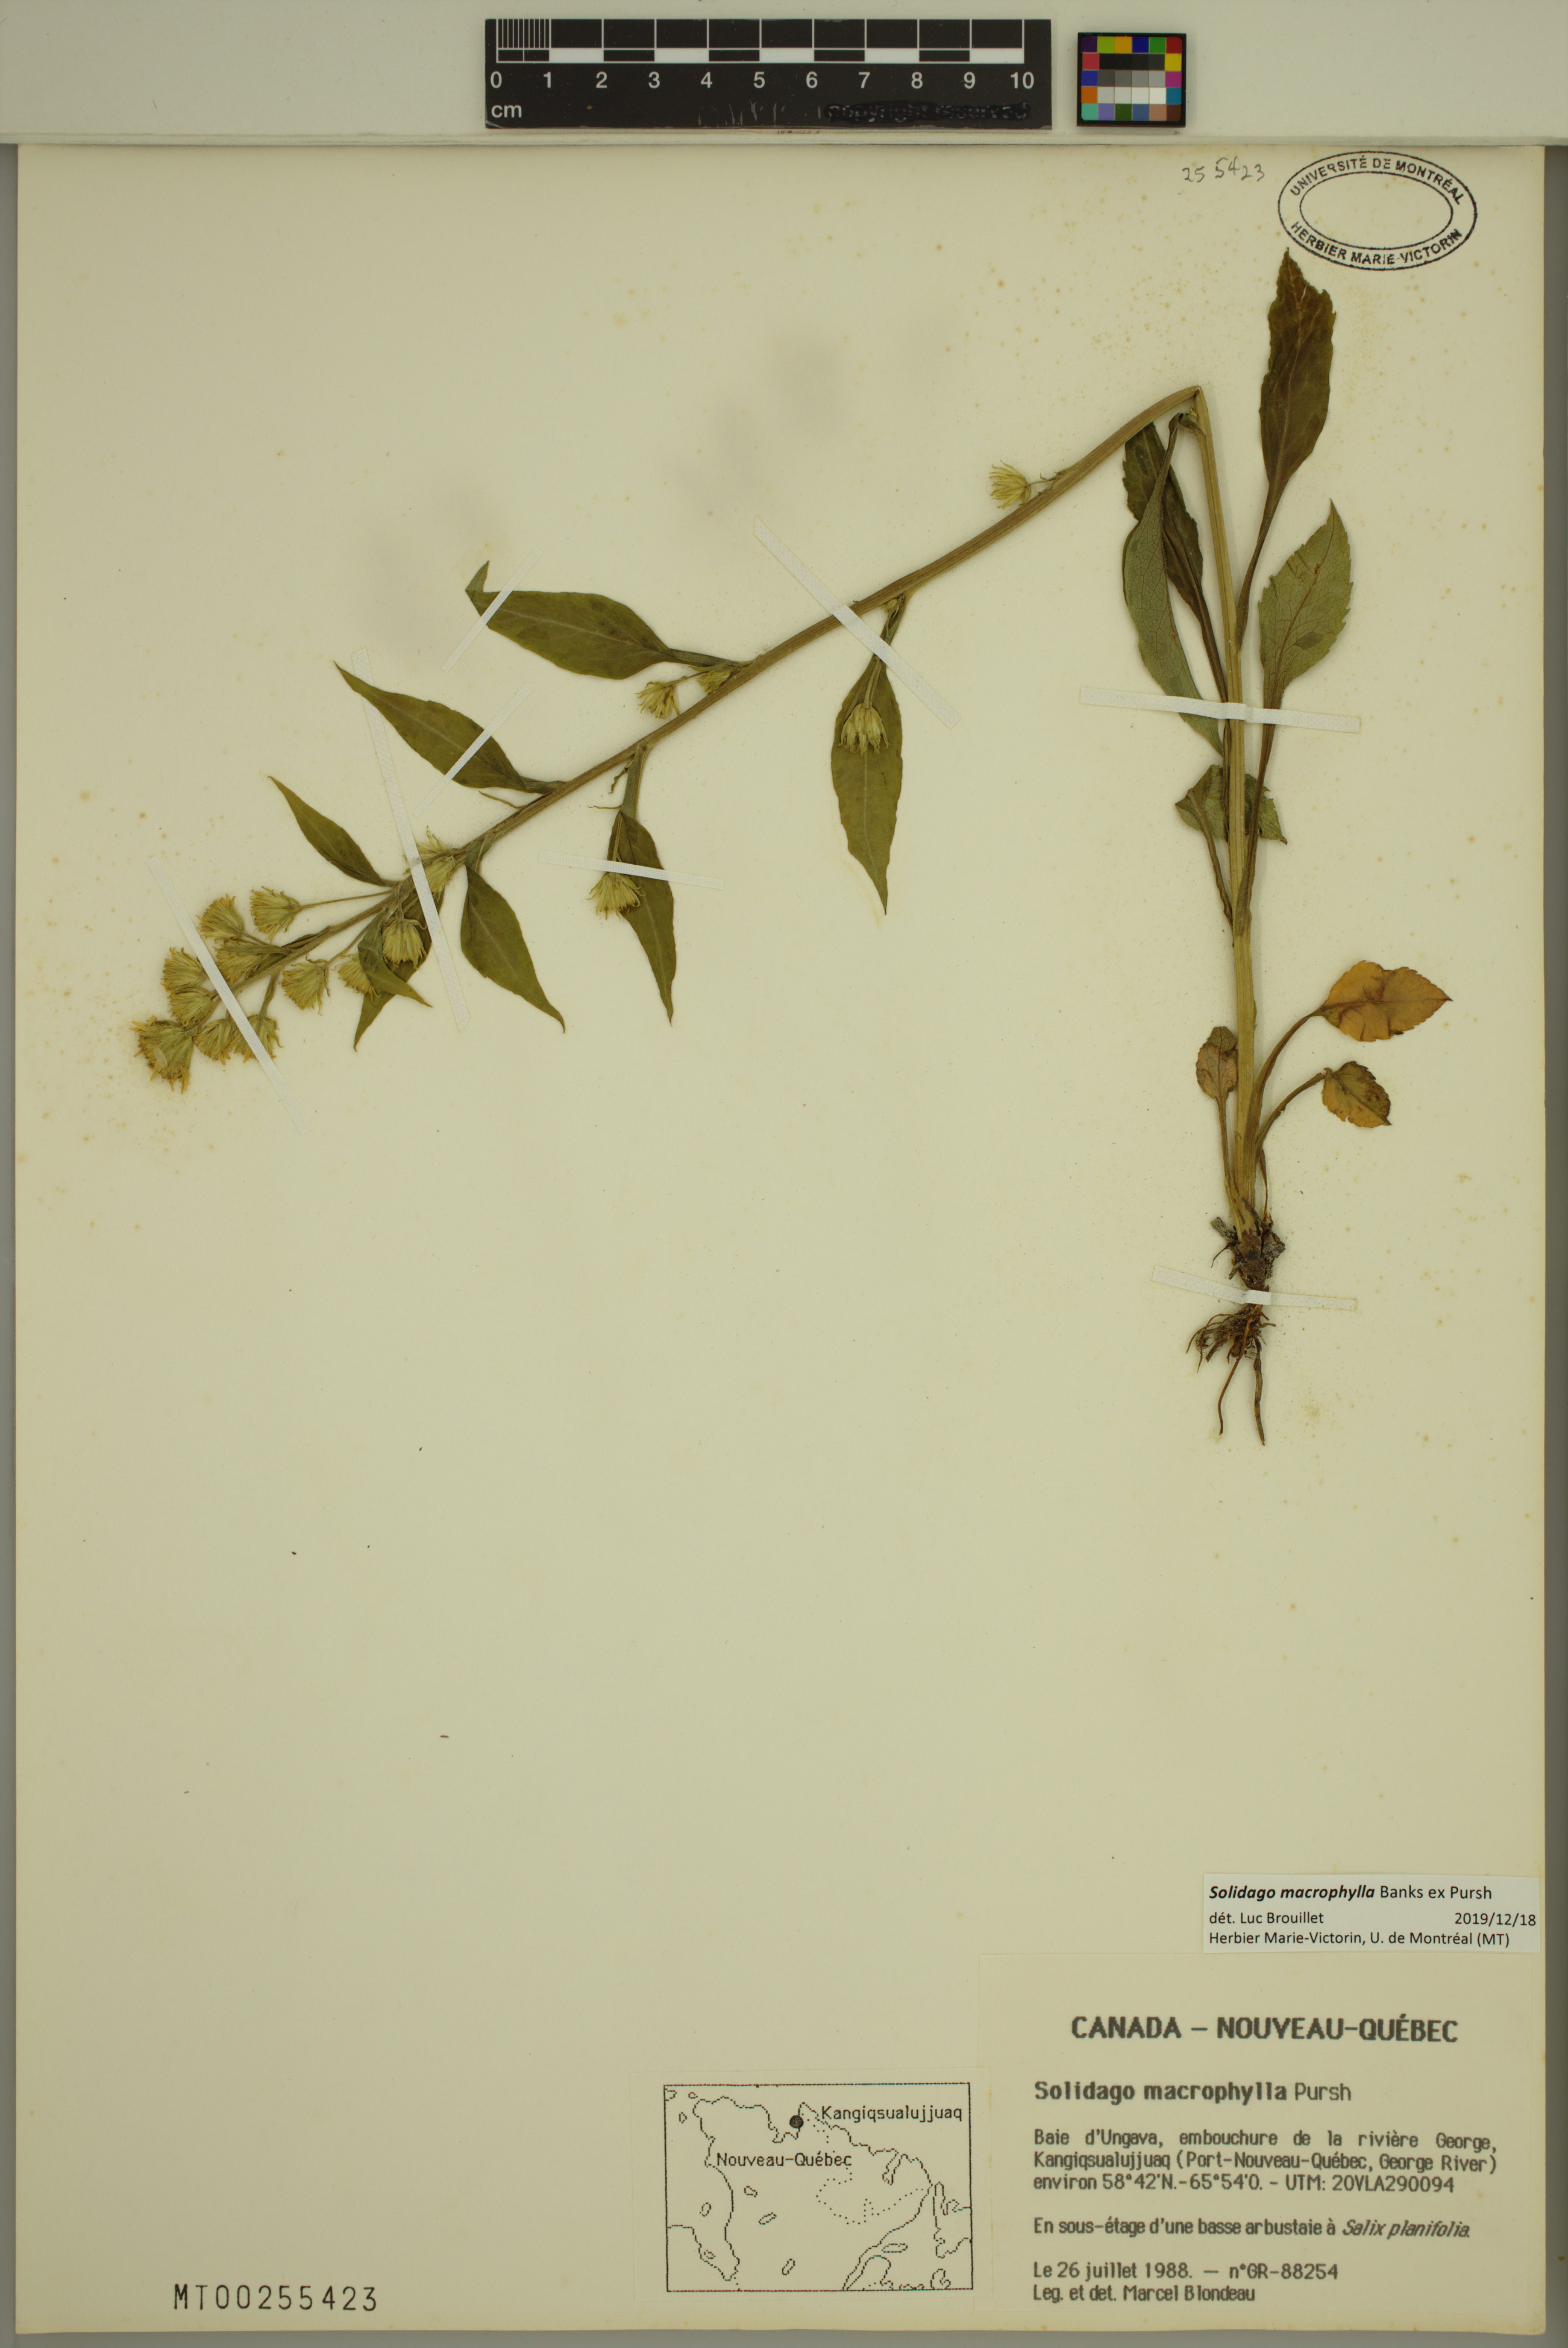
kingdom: Plantae
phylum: Tracheophyta
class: Magnoliopsida
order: Asterales
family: Asteraceae
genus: Solidago
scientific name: Solidago macrophylla
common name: Large-leaved goldenrod
